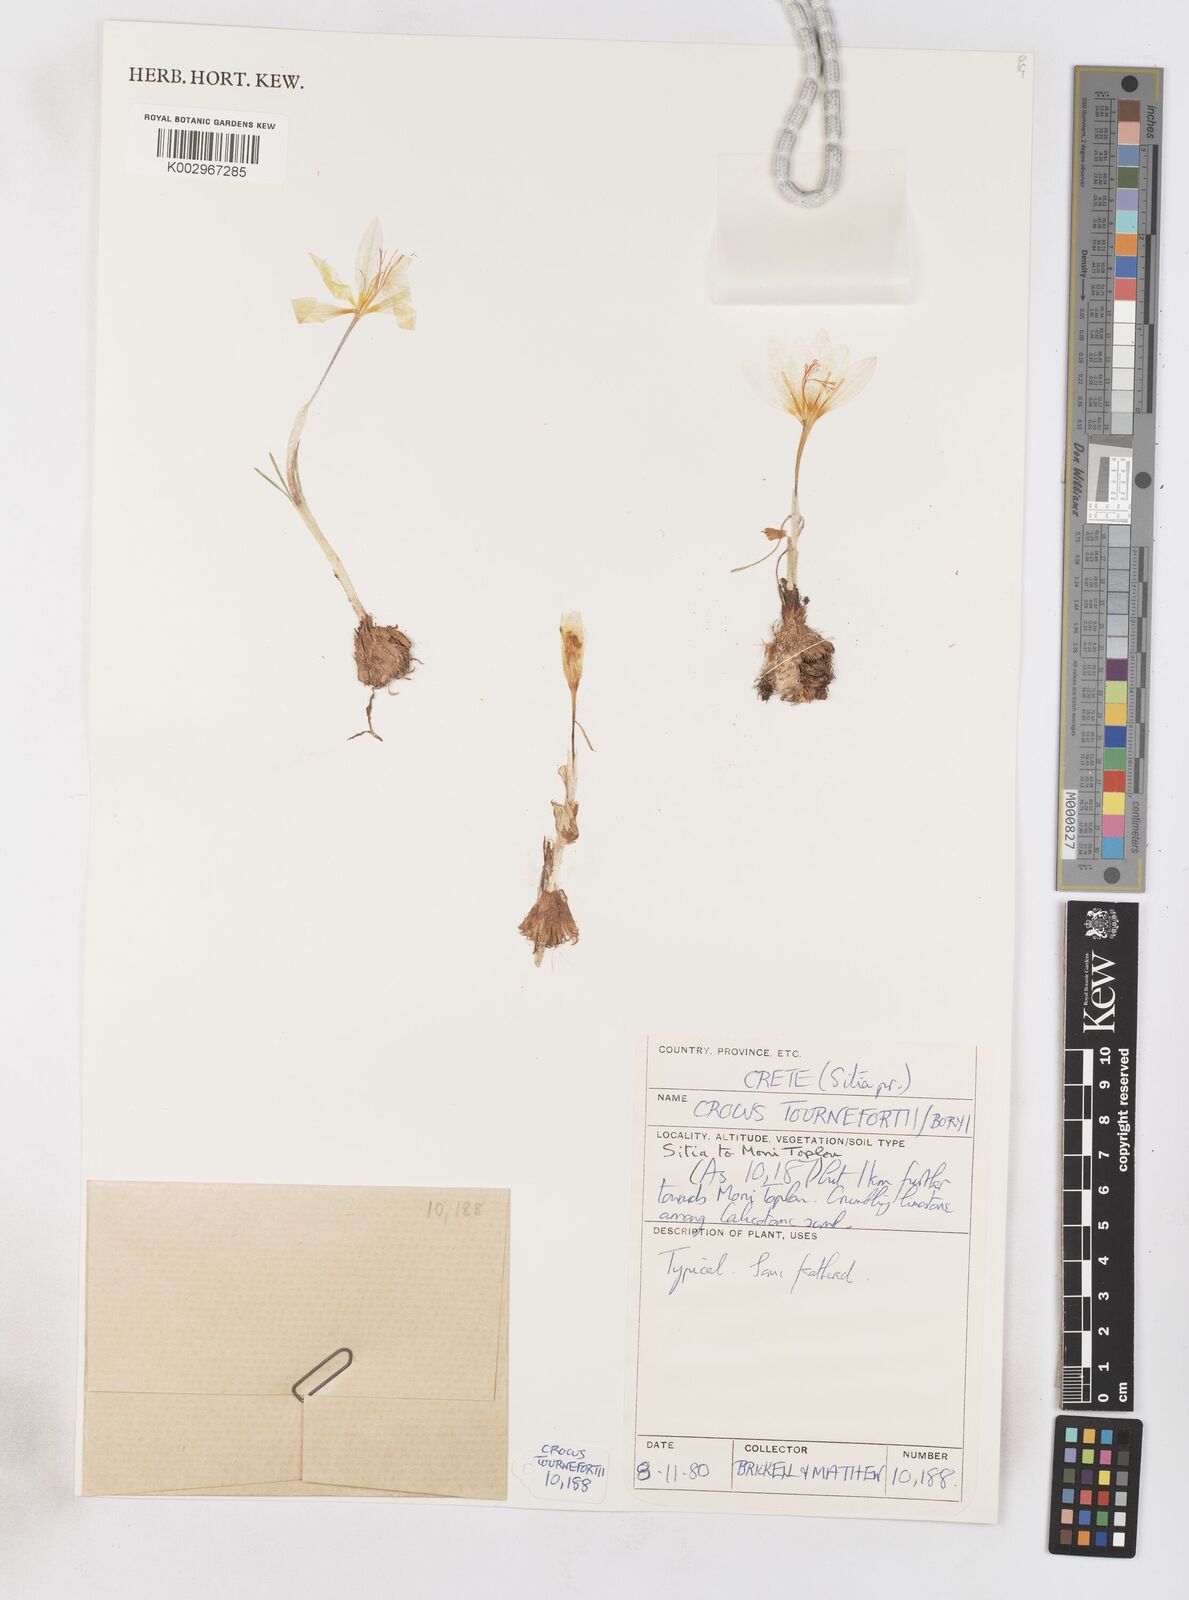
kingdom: Plantae
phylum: Tracheophyta
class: Liliopsida
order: Asparagales
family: Iridaceae
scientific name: Iridaceae
